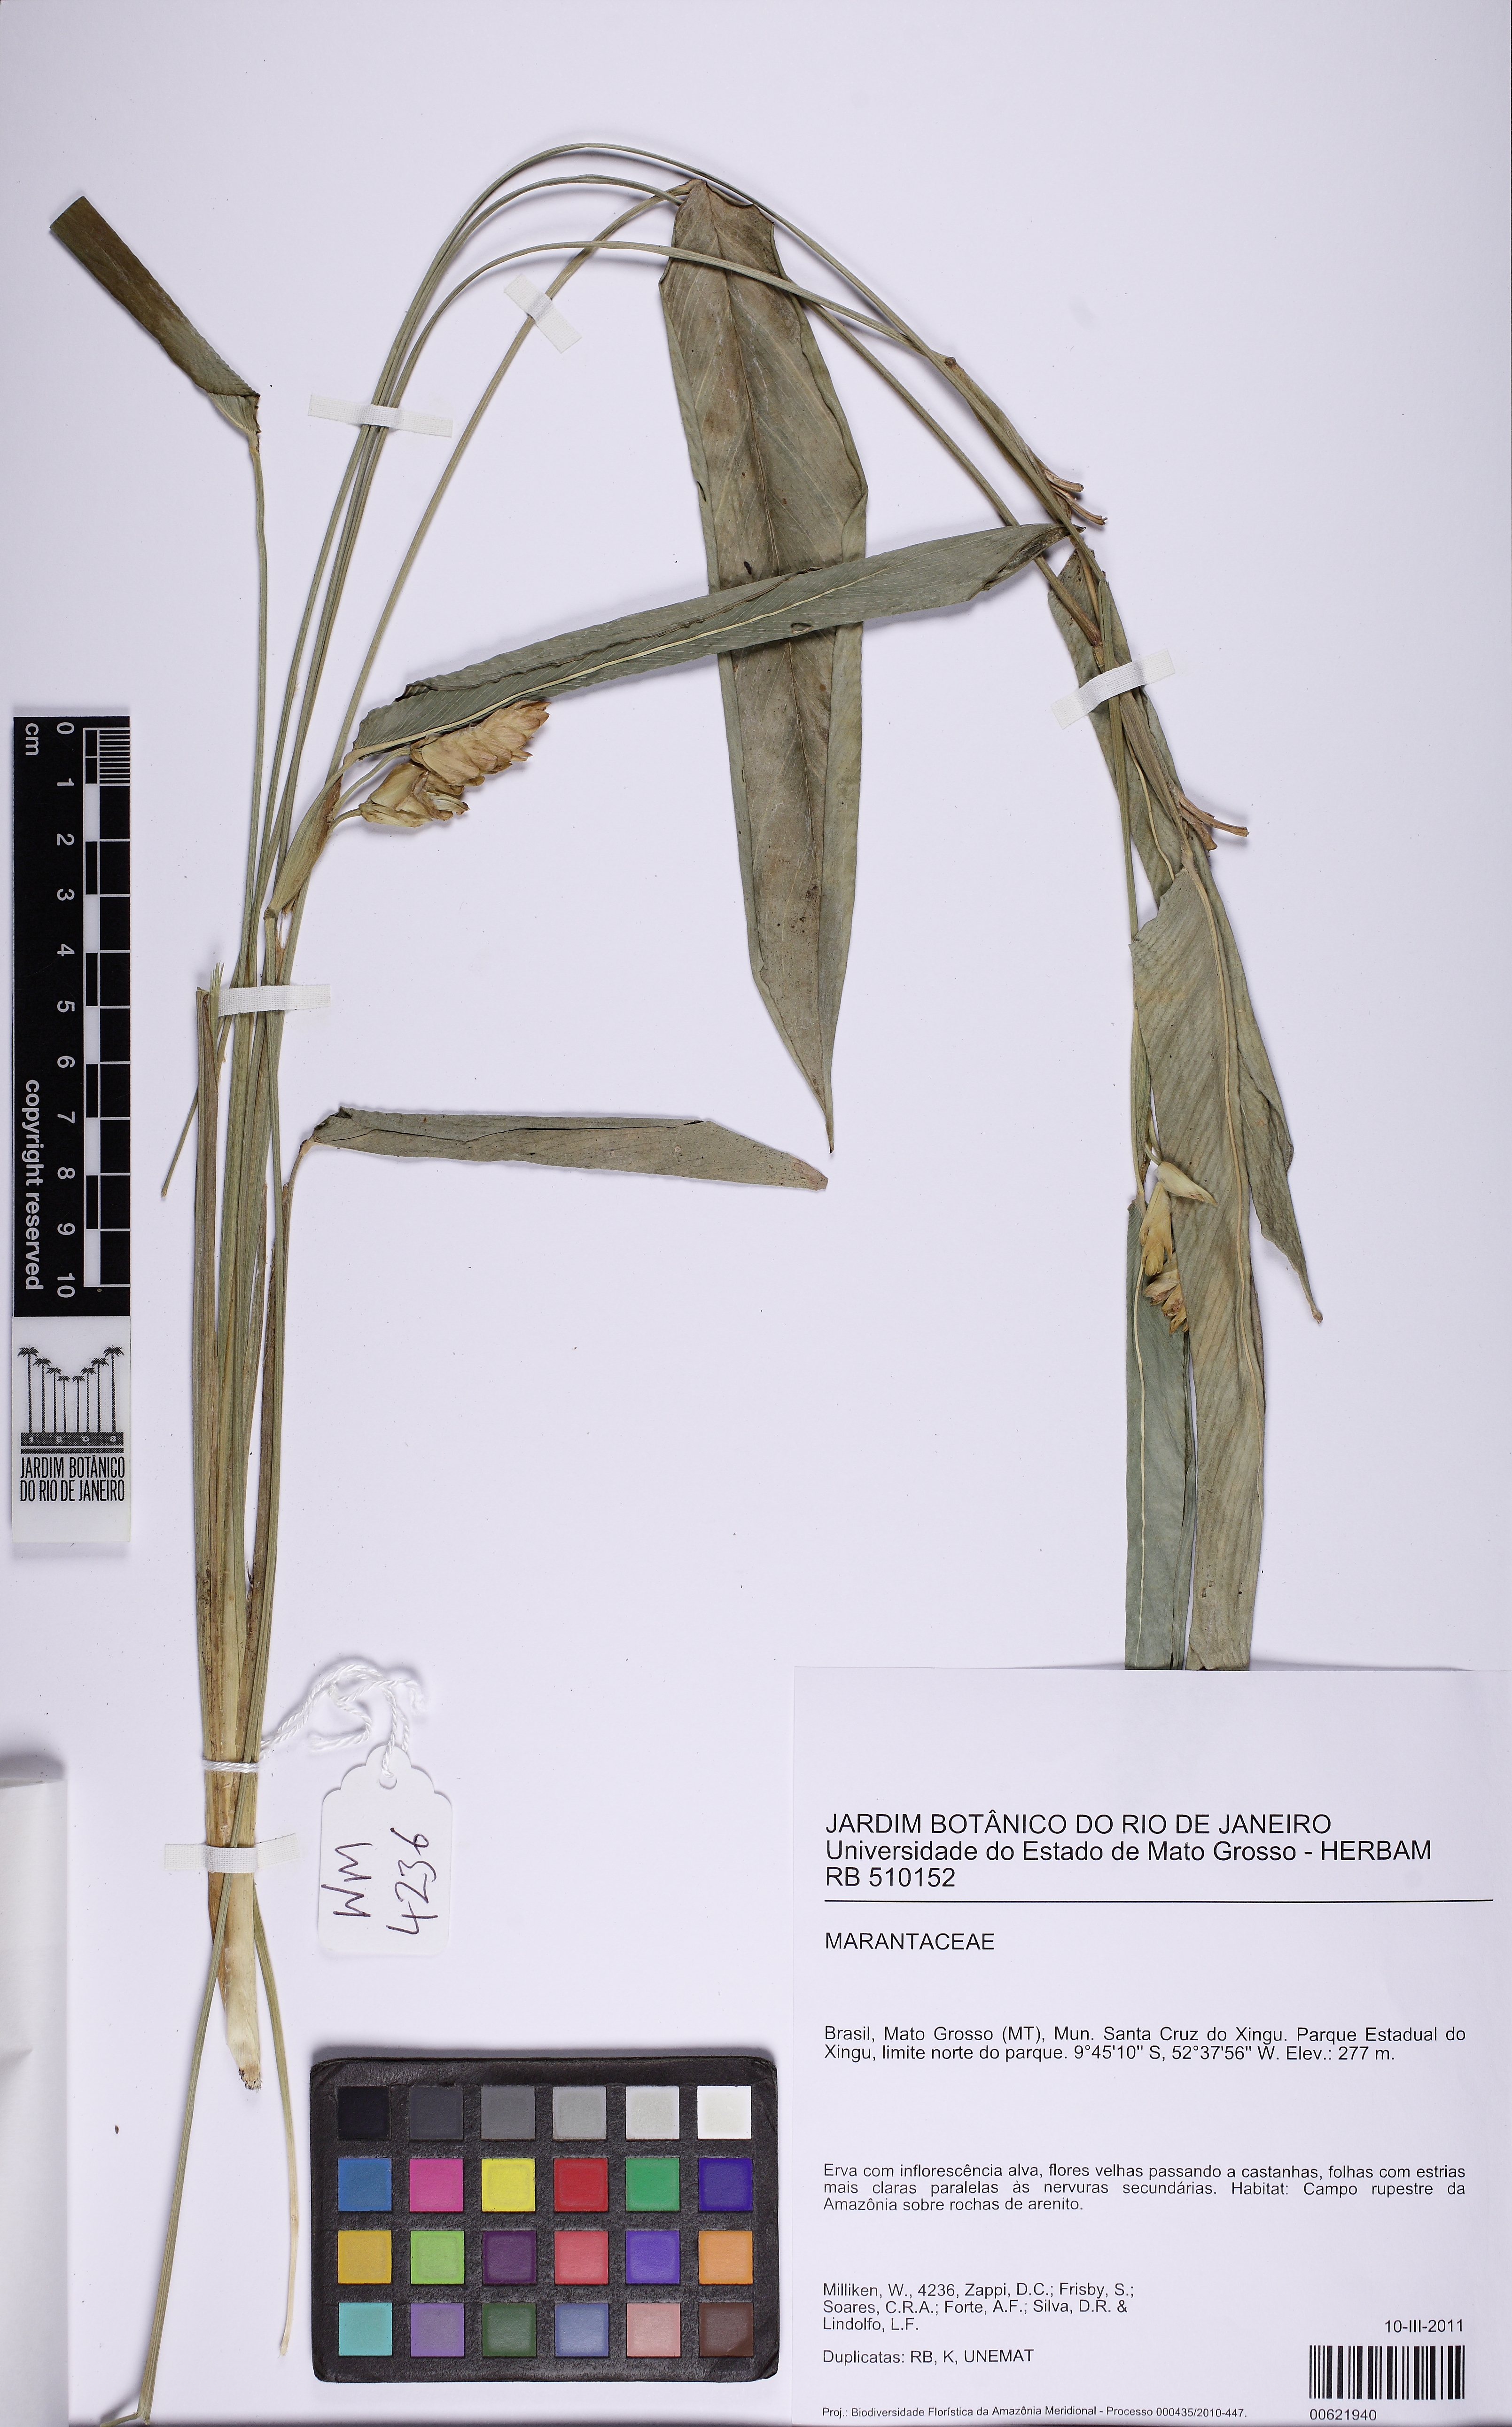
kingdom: Plantae
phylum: Tracheophyta
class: Liliopsida
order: Zingiberales
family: Marantaceae
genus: Myrosma
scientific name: Myrosma cannifolia
